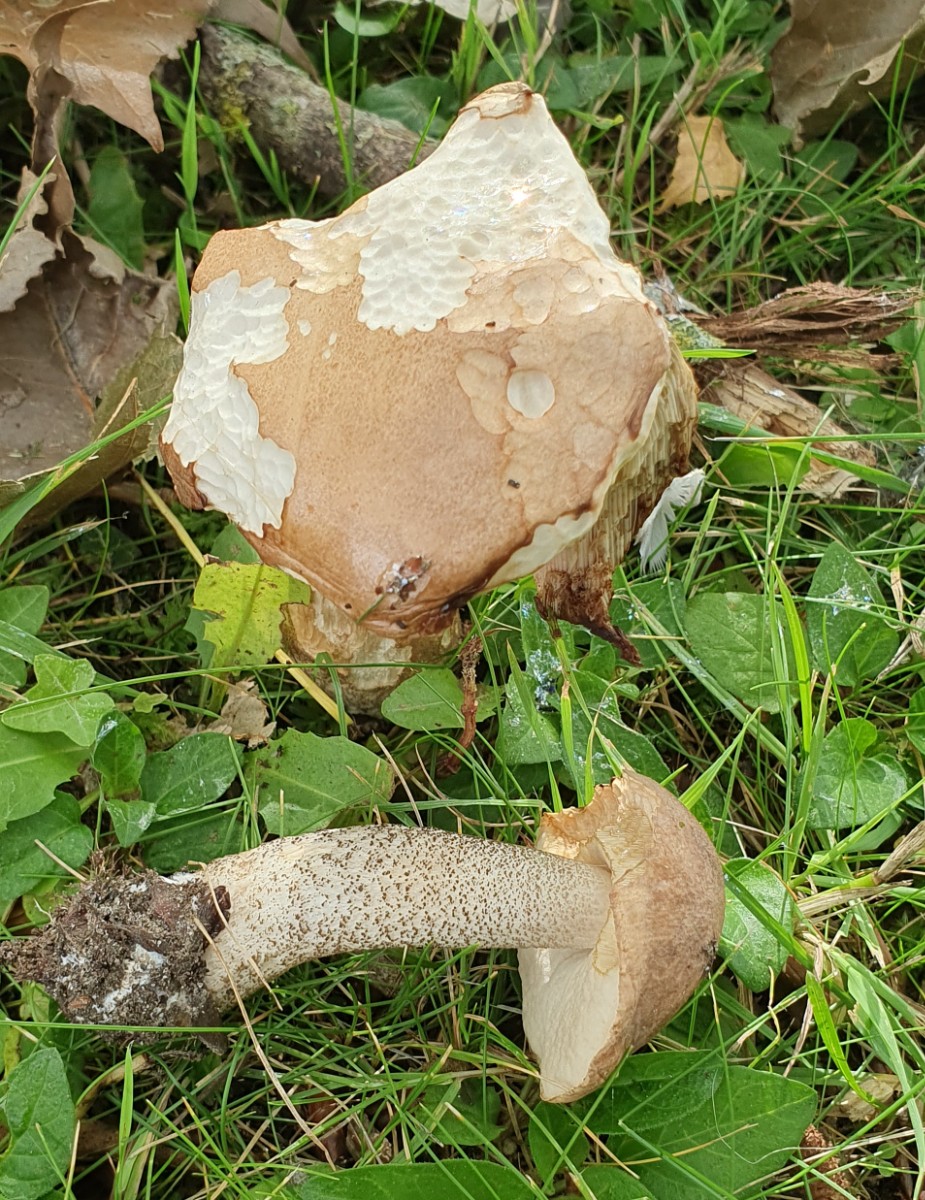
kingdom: Fungi
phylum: Basidiomycota
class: Agaricomycetes
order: Boletales
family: Boletaceae
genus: Leccinum
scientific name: Leccinum duriusculum
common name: poppel-skælrørhat
